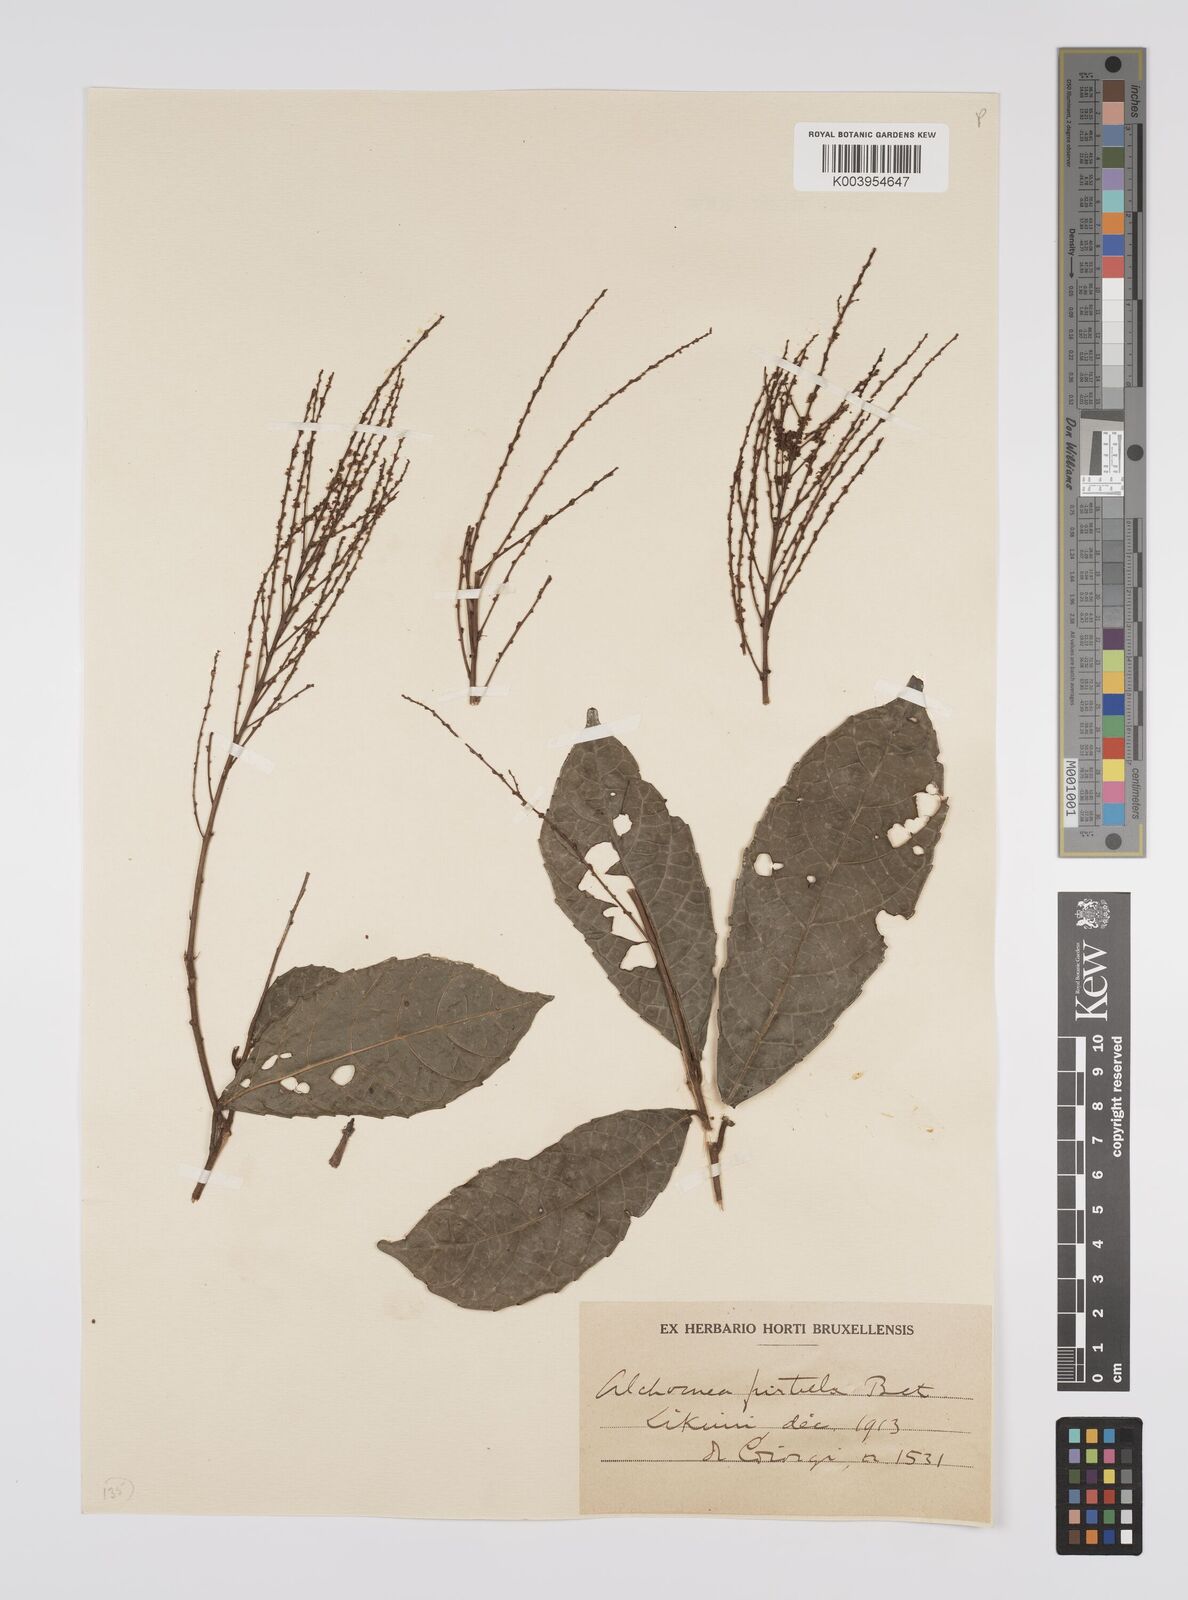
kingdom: Plantae
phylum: Tracheophyta
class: Magnoliopsida
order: Malpighiales
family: Euphorbiaceae
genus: Alchornea
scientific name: Alchornea hirtella
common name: Forest bead-string
